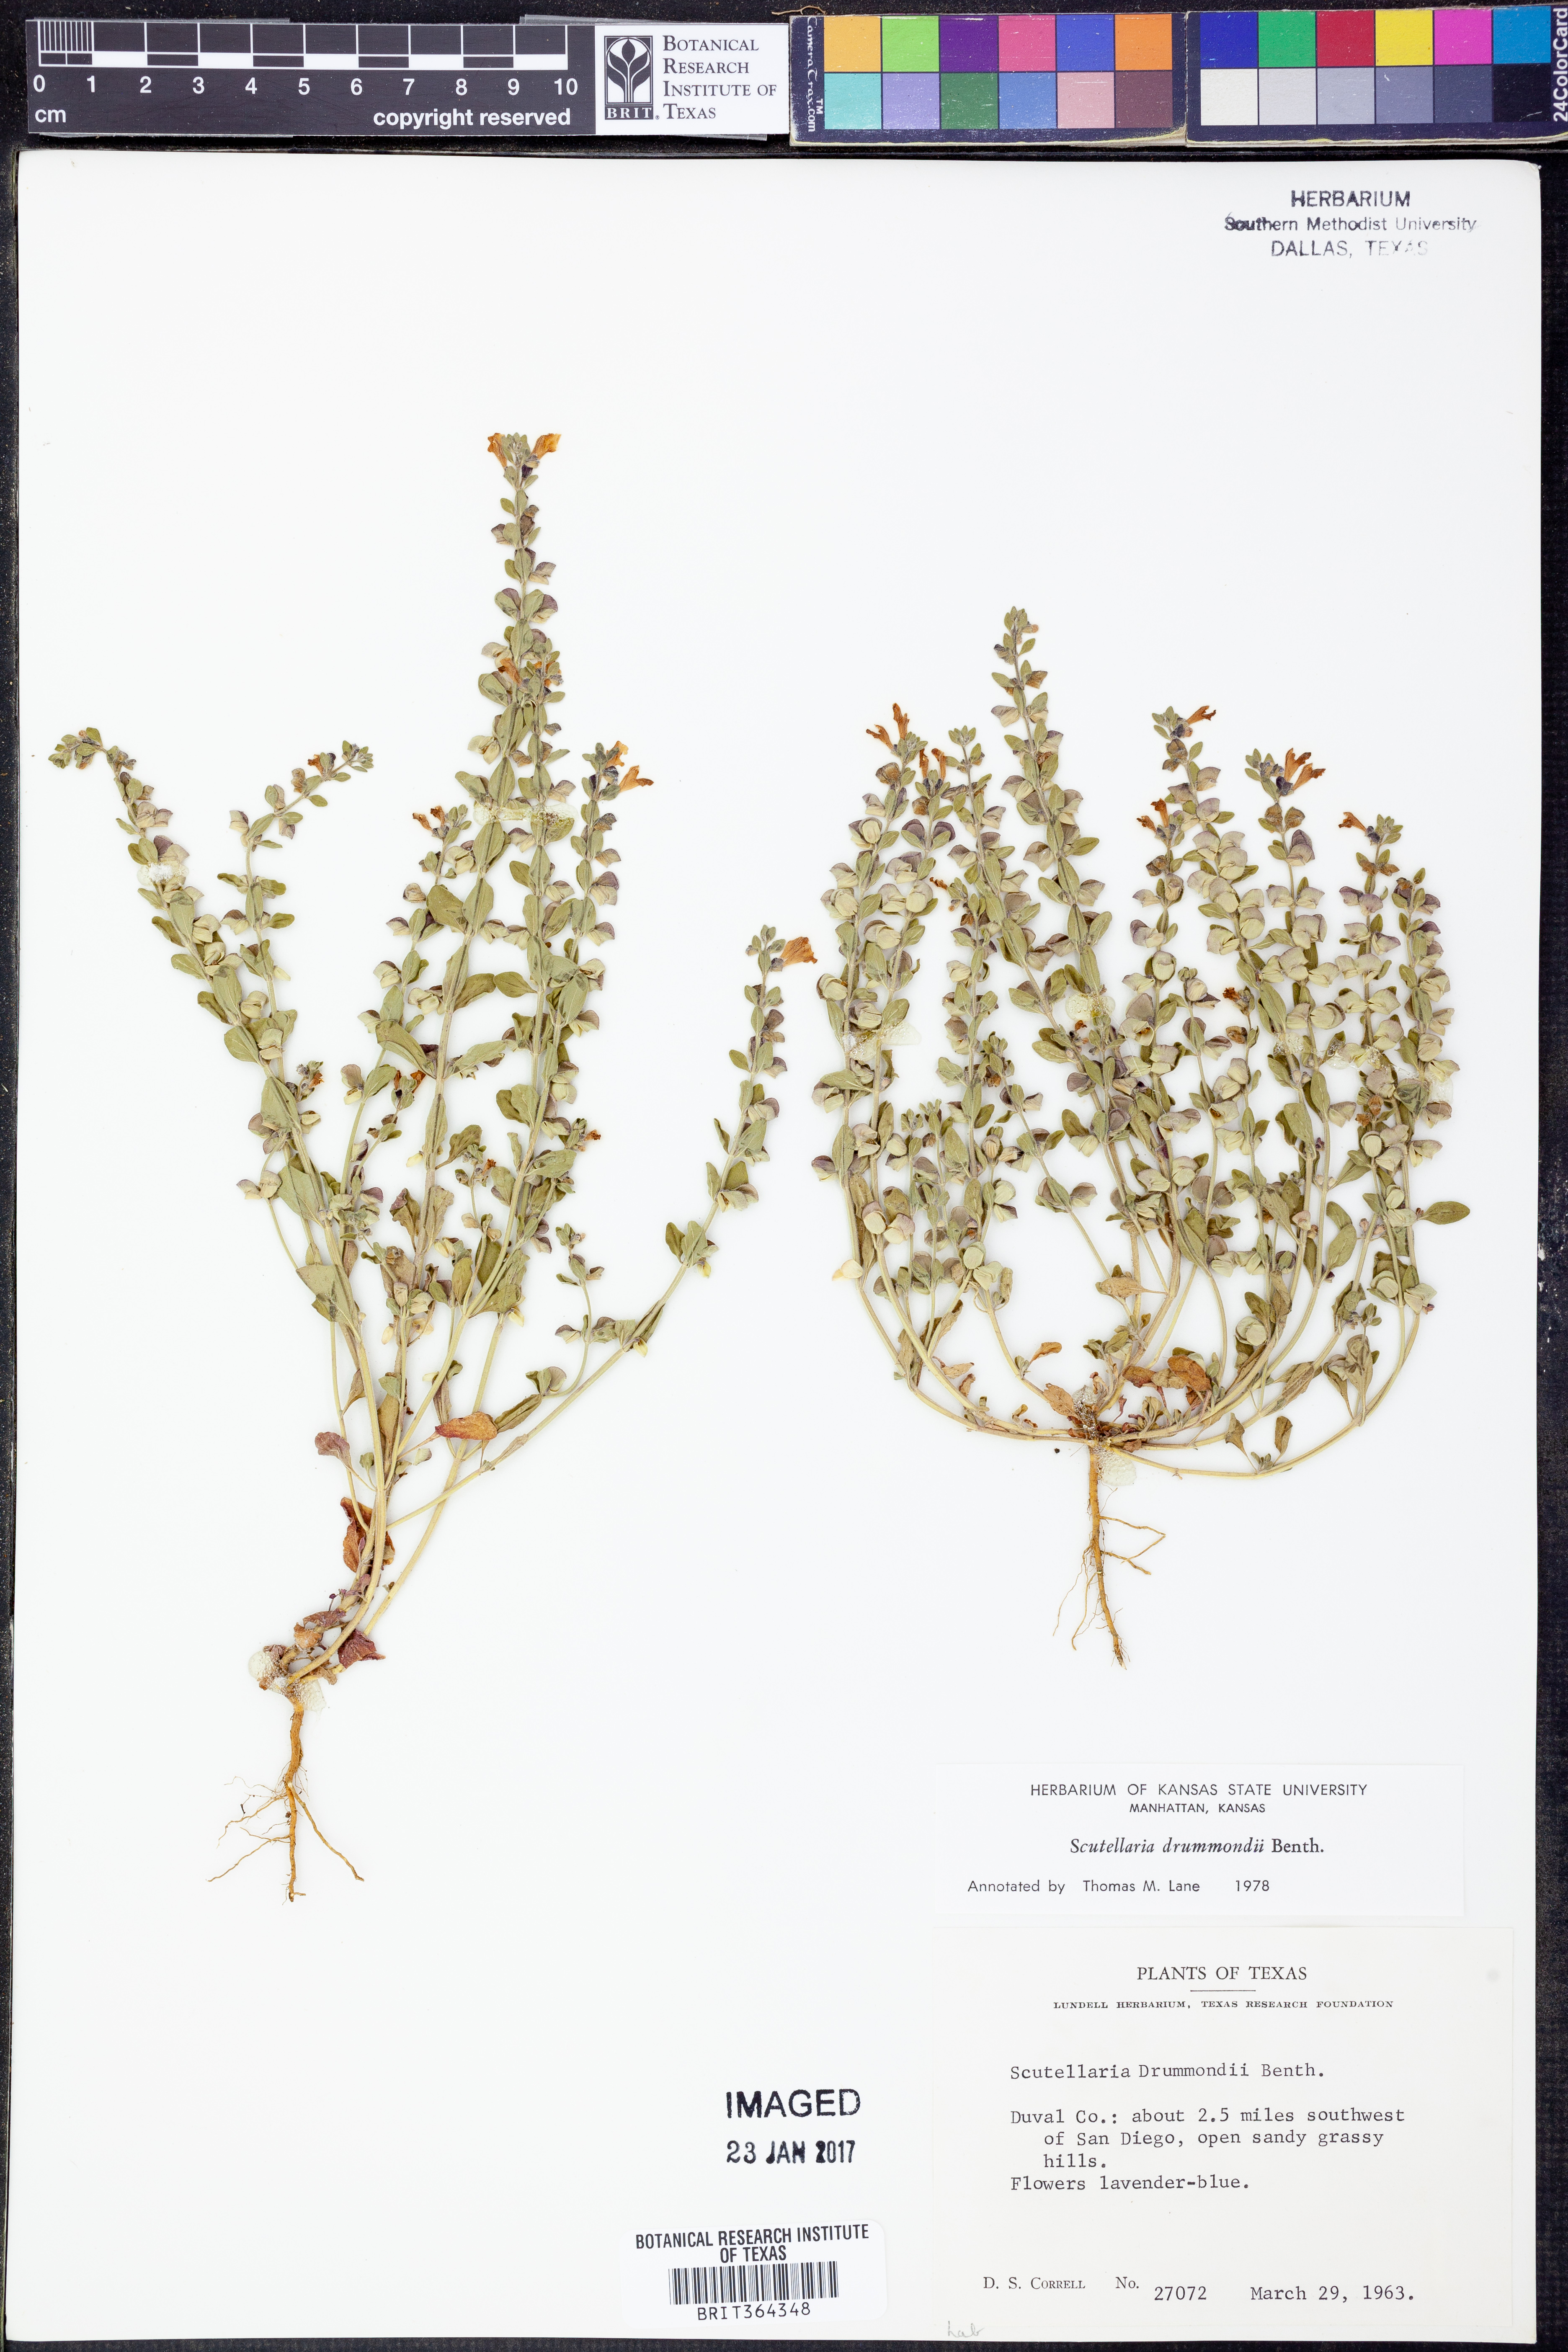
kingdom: Plantae
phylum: Tracheophyta
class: Magnoliopsida
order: Lamiales
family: Lamiaceae
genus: Scutellaria
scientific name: Scutellaria drummondii
